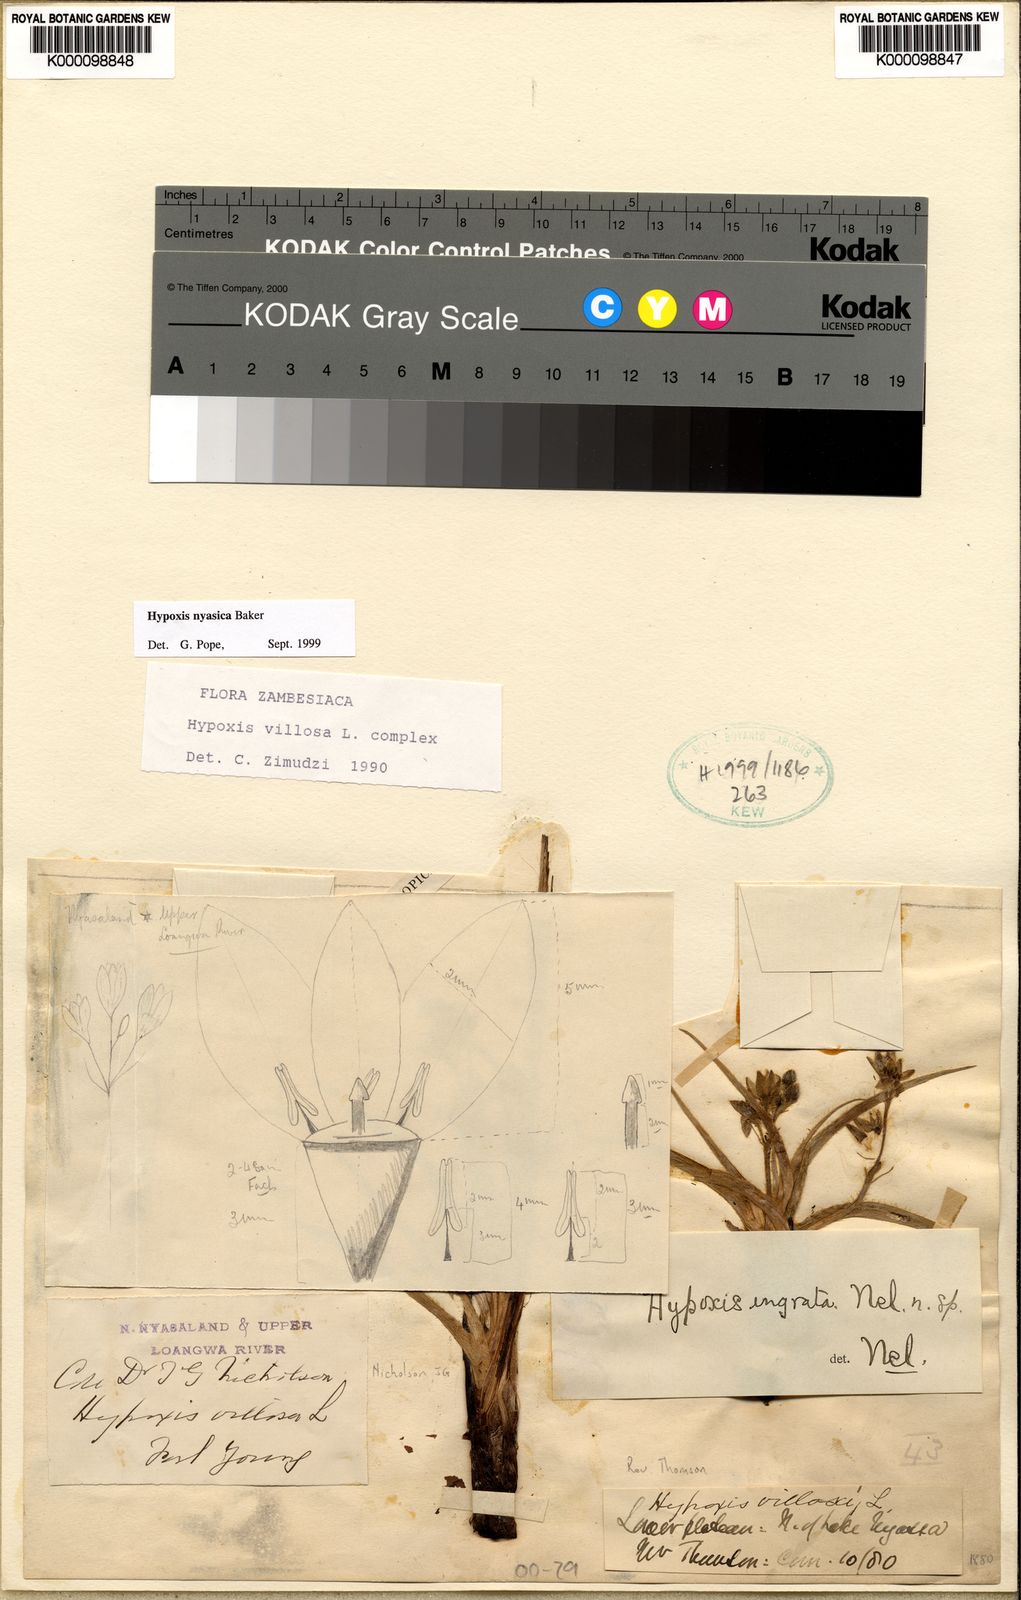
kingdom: Plantae
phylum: Tracheophyta
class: Liliopsida
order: Asparagales
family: Hypoxidaceae
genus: Hypoxis
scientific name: Hypoxis nyasica
